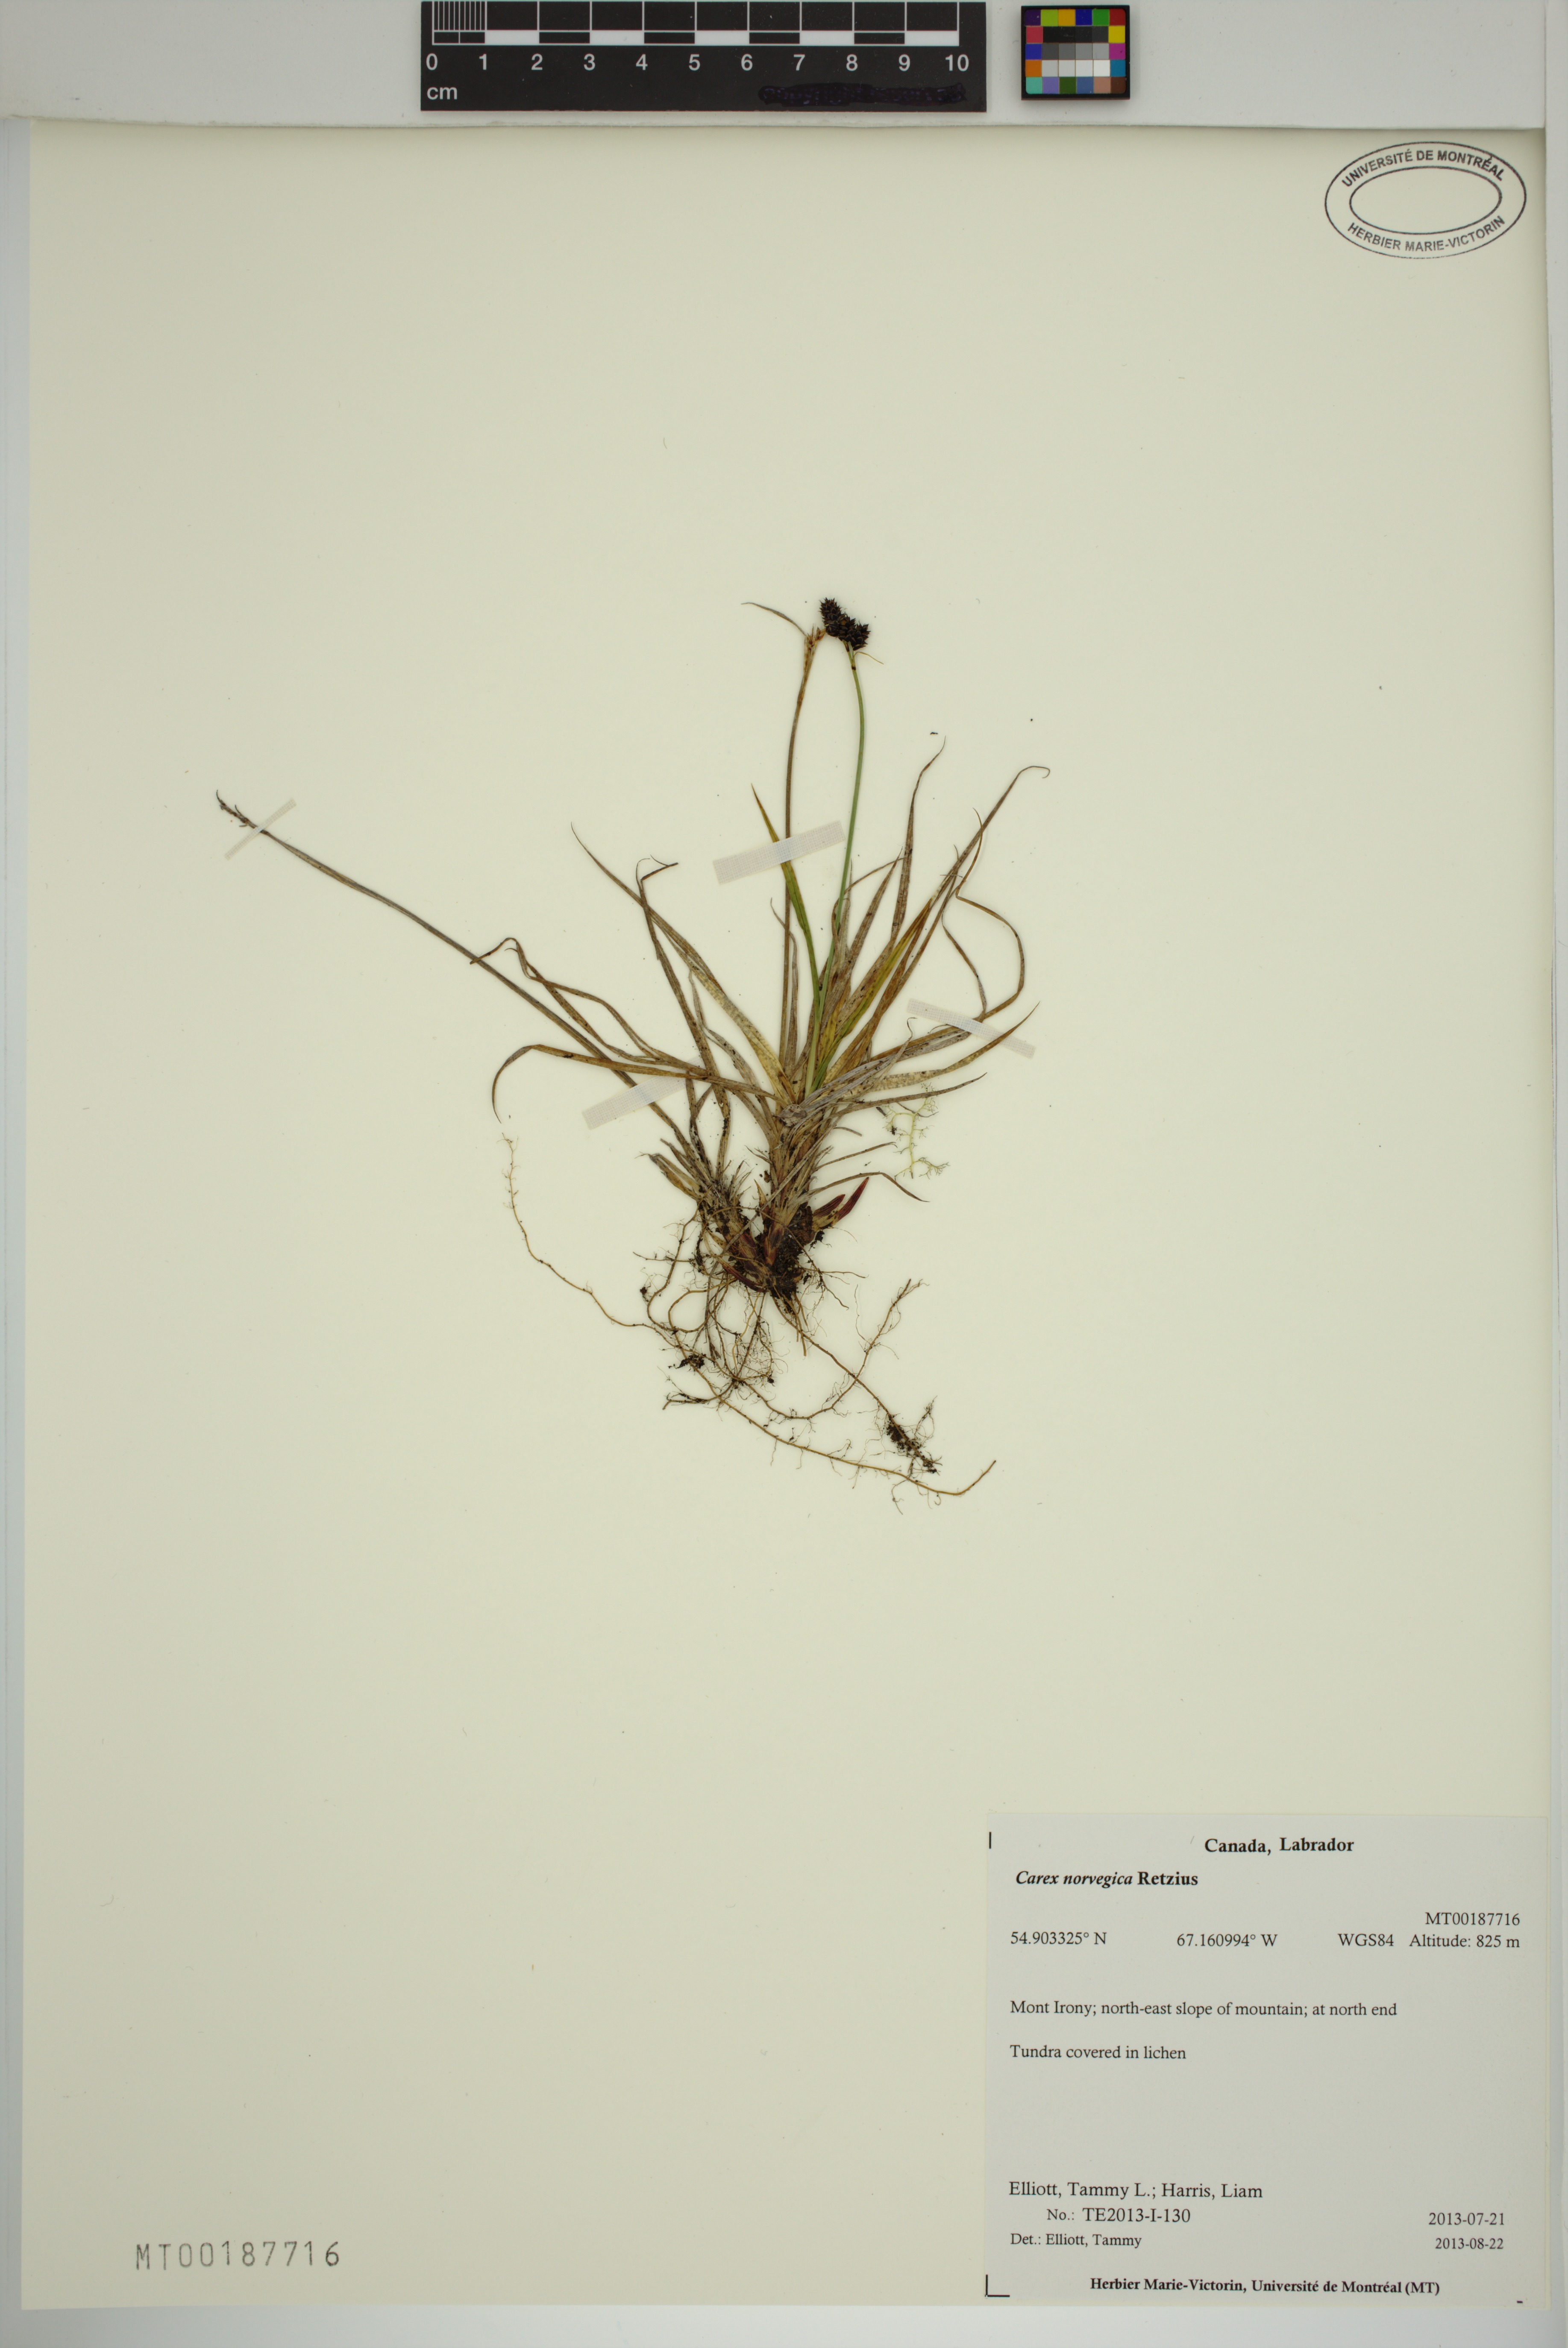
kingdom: Plantae
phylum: Tracheophyta
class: Liliopsida
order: Poales
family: Cyperaceae
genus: Carex
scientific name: Carex norvegica
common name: Close-headed alpine-sedge
